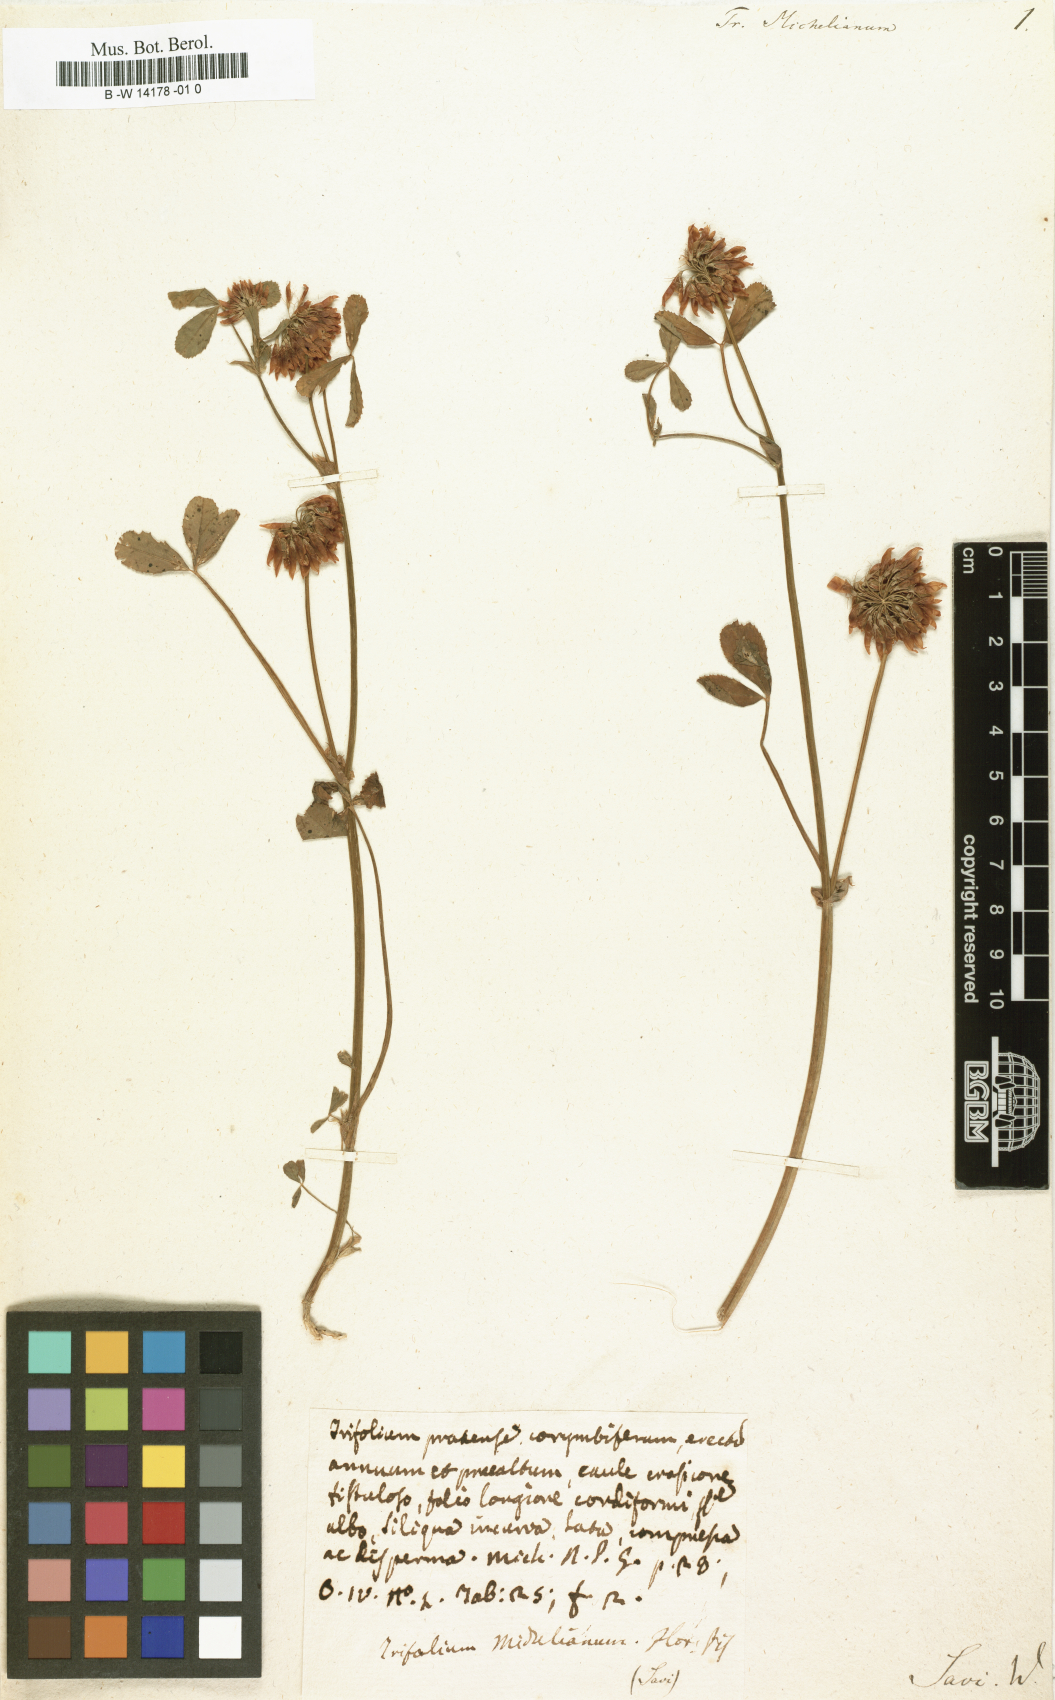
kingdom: Plantae
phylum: Tracheophyta
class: Magnoliopsida
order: Fabales
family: Fabaceae
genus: Trifolium
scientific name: Trifolium michelianum
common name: Bigflower clover
